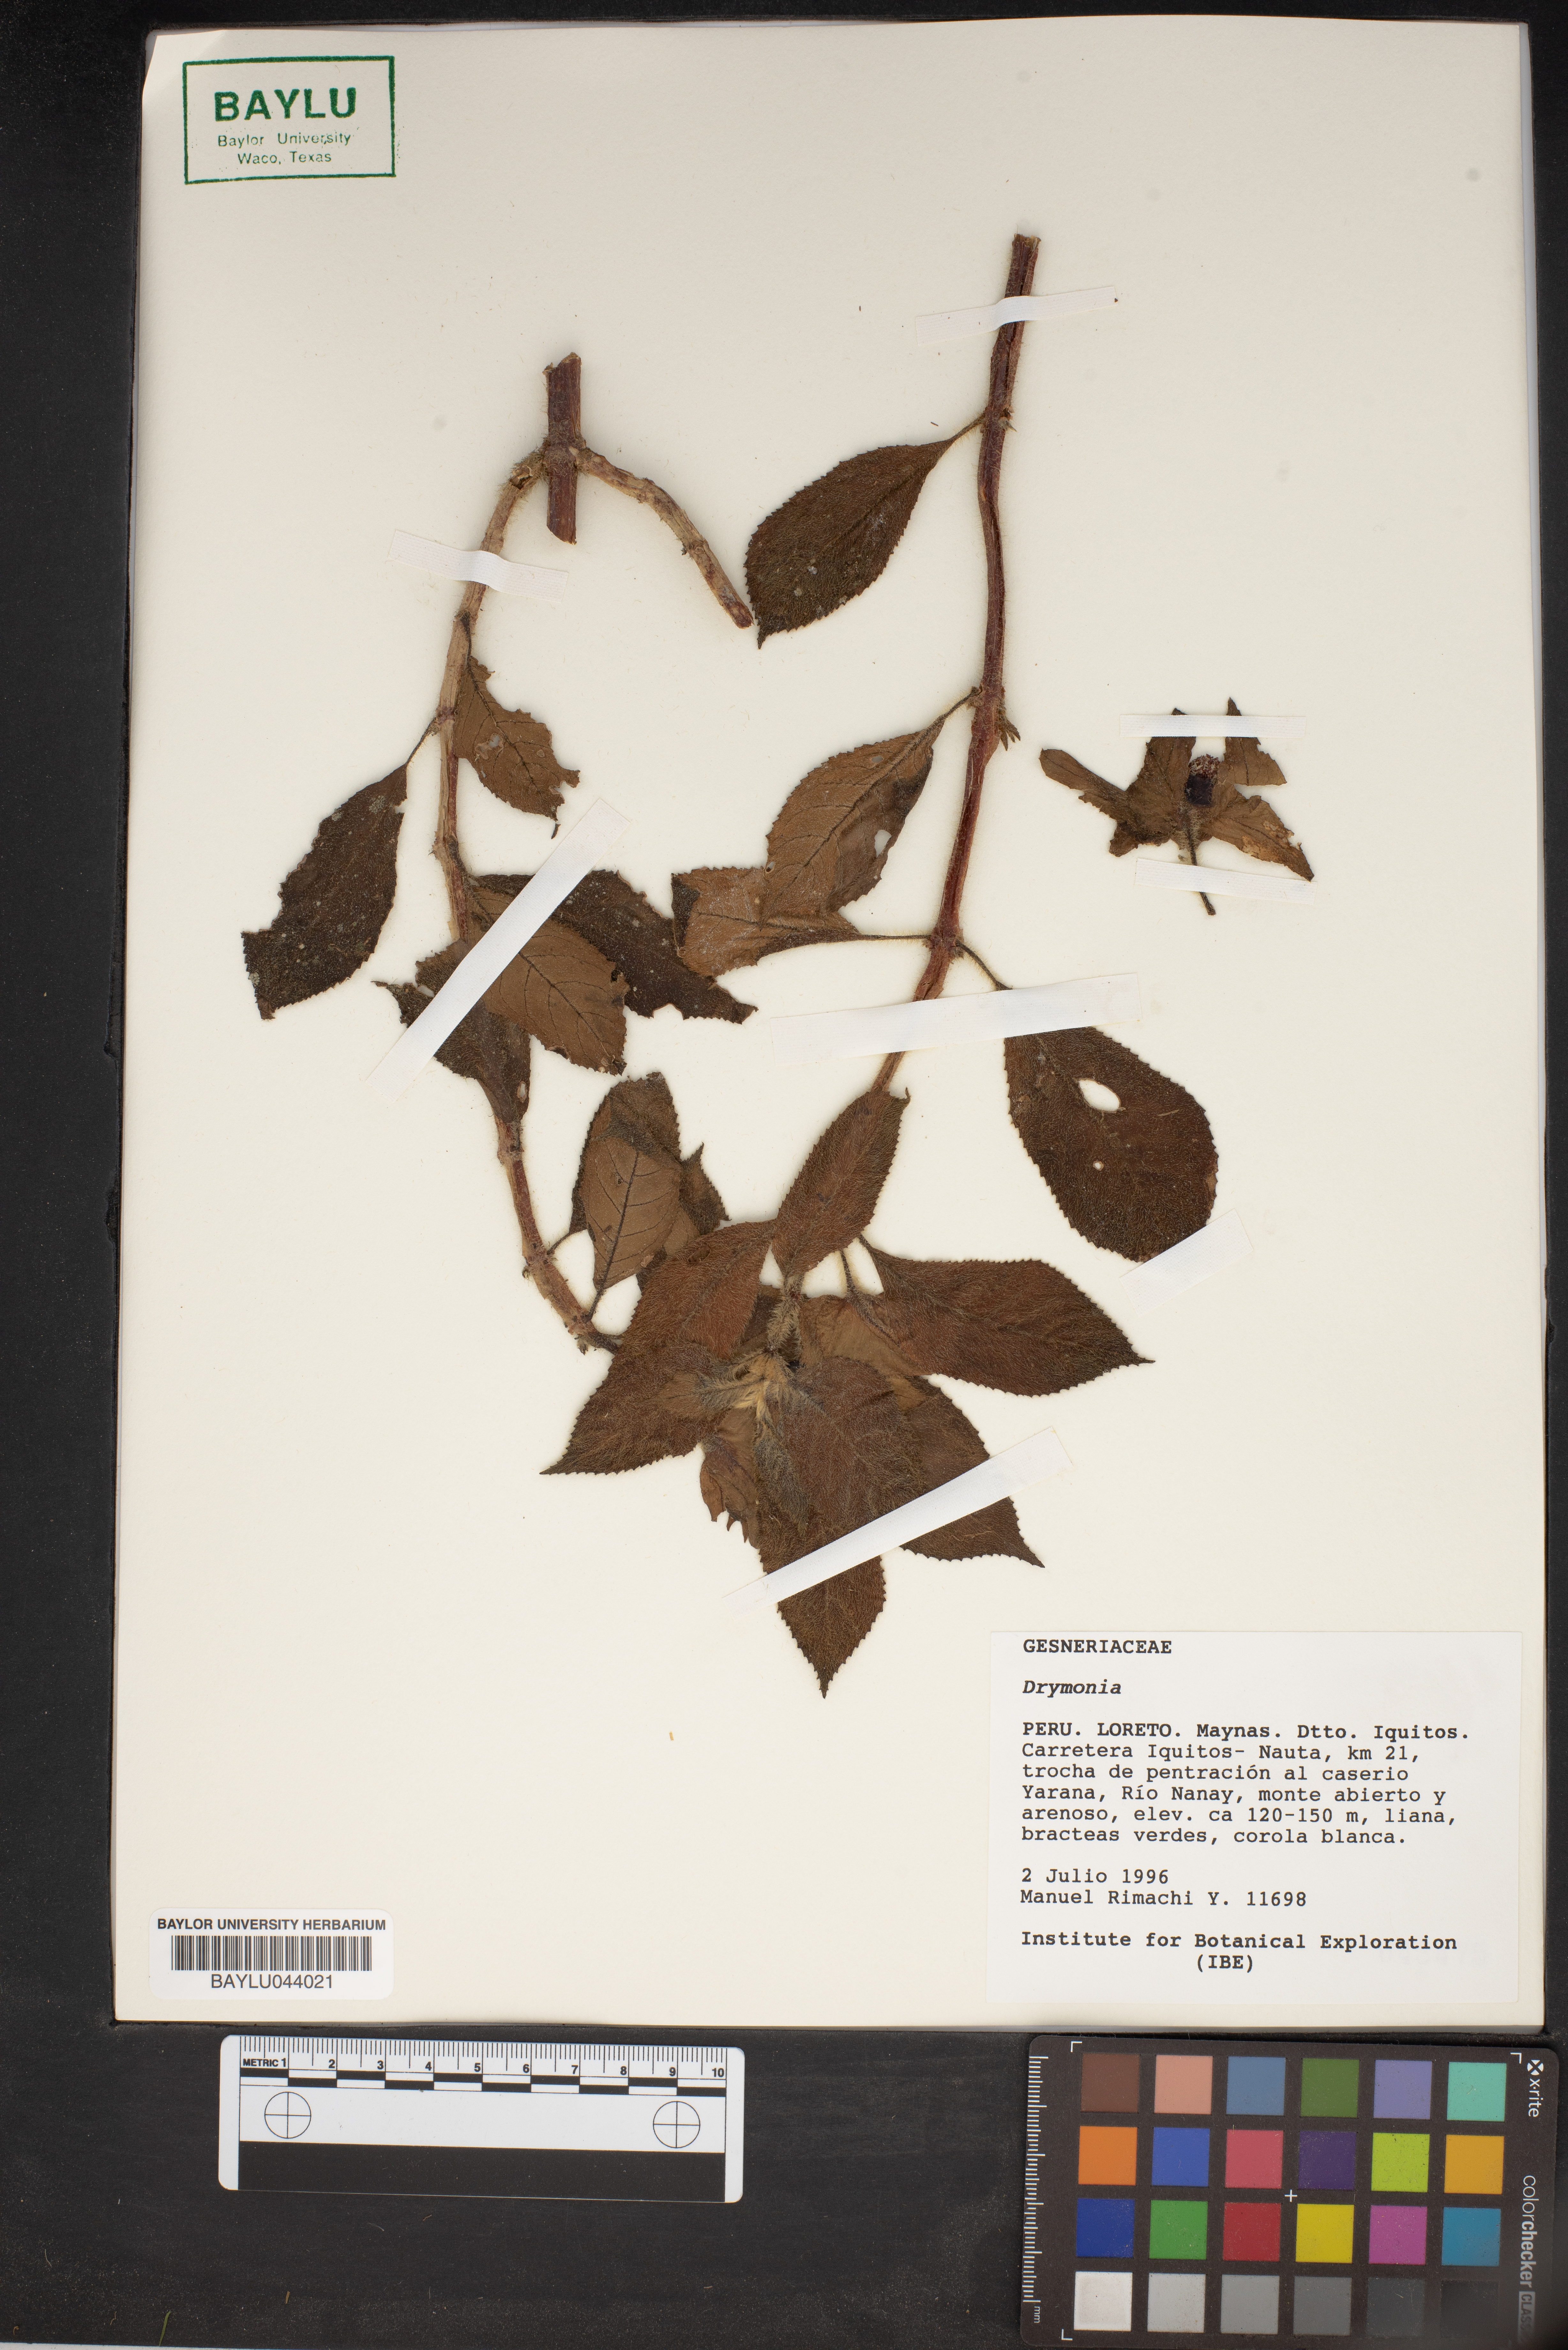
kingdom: Plantae
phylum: Tracheophyta
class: Magnoliopsida
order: Lamiales
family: Gesneriaceae
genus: Drymonia
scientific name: Drymonia
